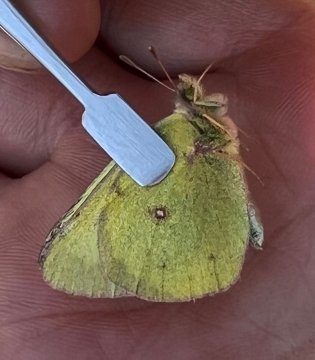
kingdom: Animalia
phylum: Arthropoda
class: Insecta
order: Lepidoptera
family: Pieridae
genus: Colias
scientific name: Colias philodice
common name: Clouded Sulphur
